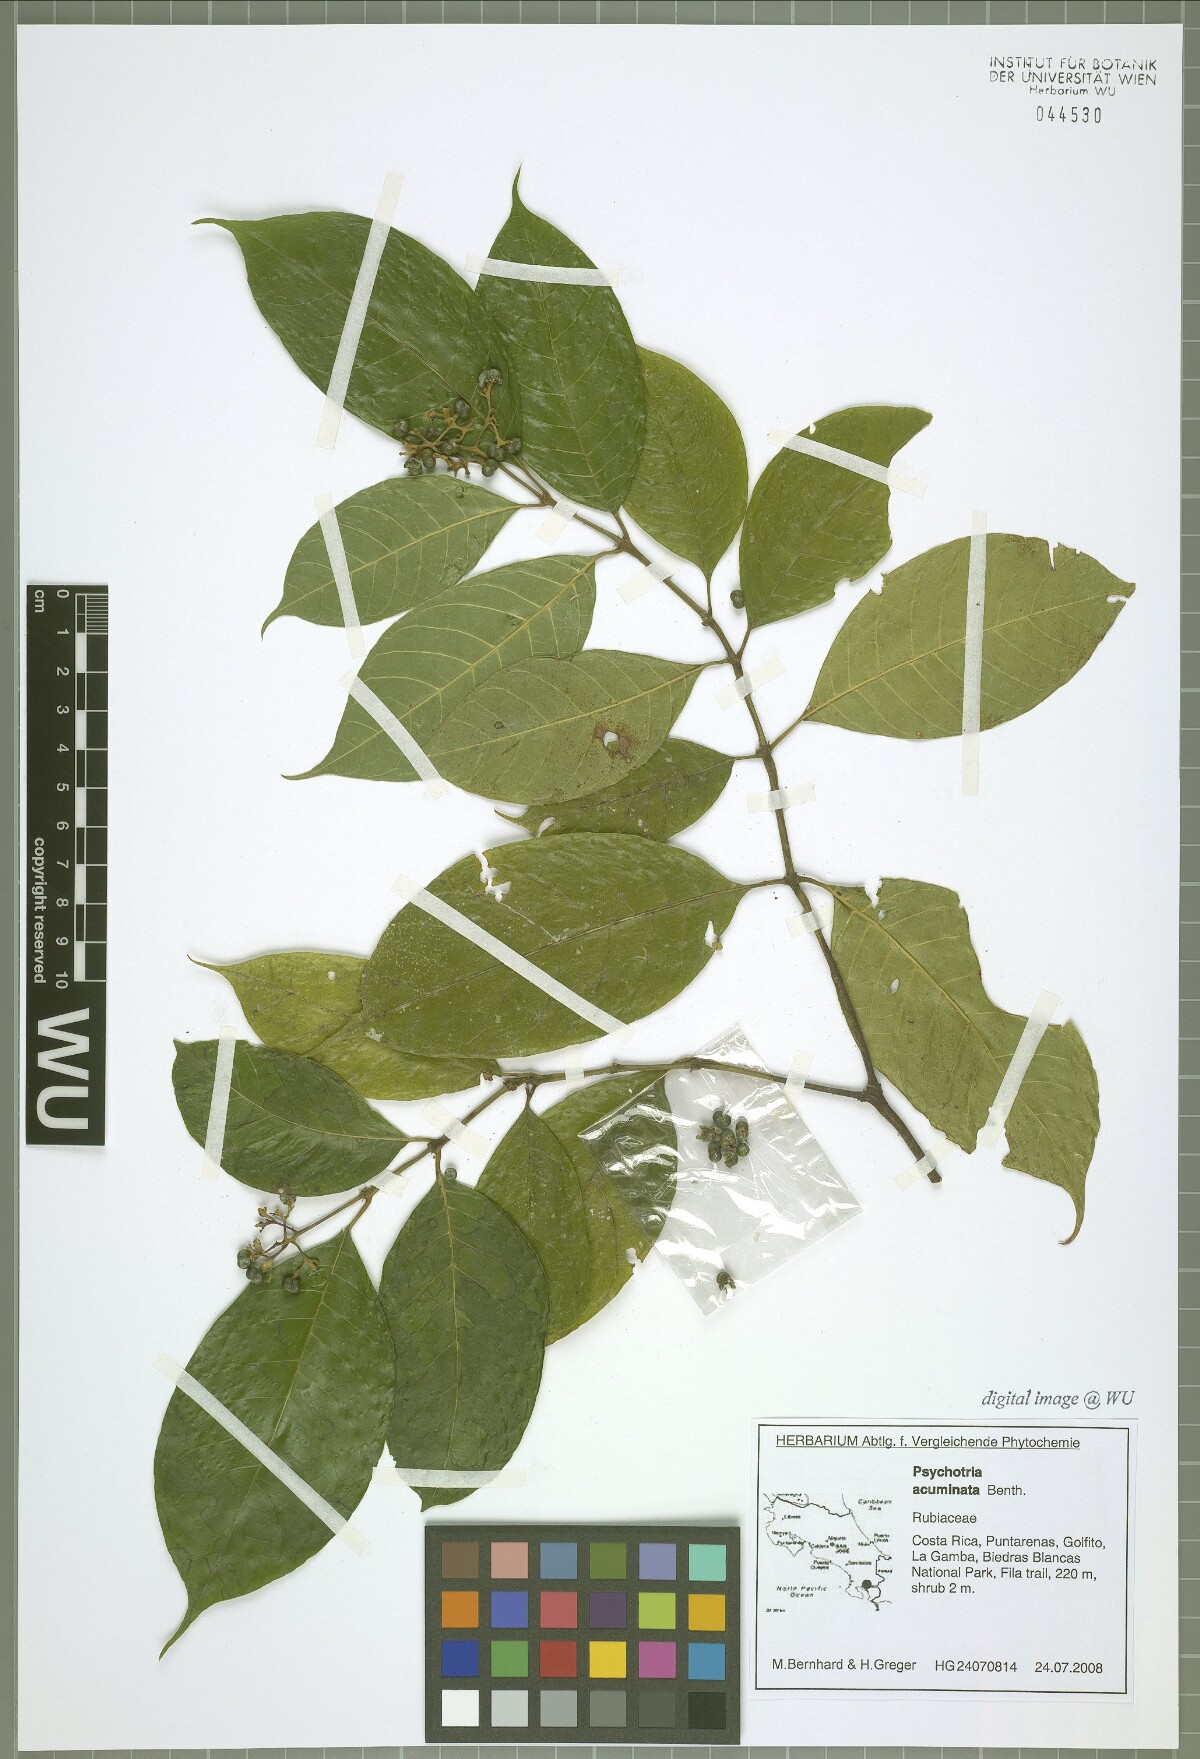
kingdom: Plantae
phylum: Tracheophyta
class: Magnoliopsida
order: Gentianales
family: Rubiaceae
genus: Palicourea
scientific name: Palicourea acuminata
